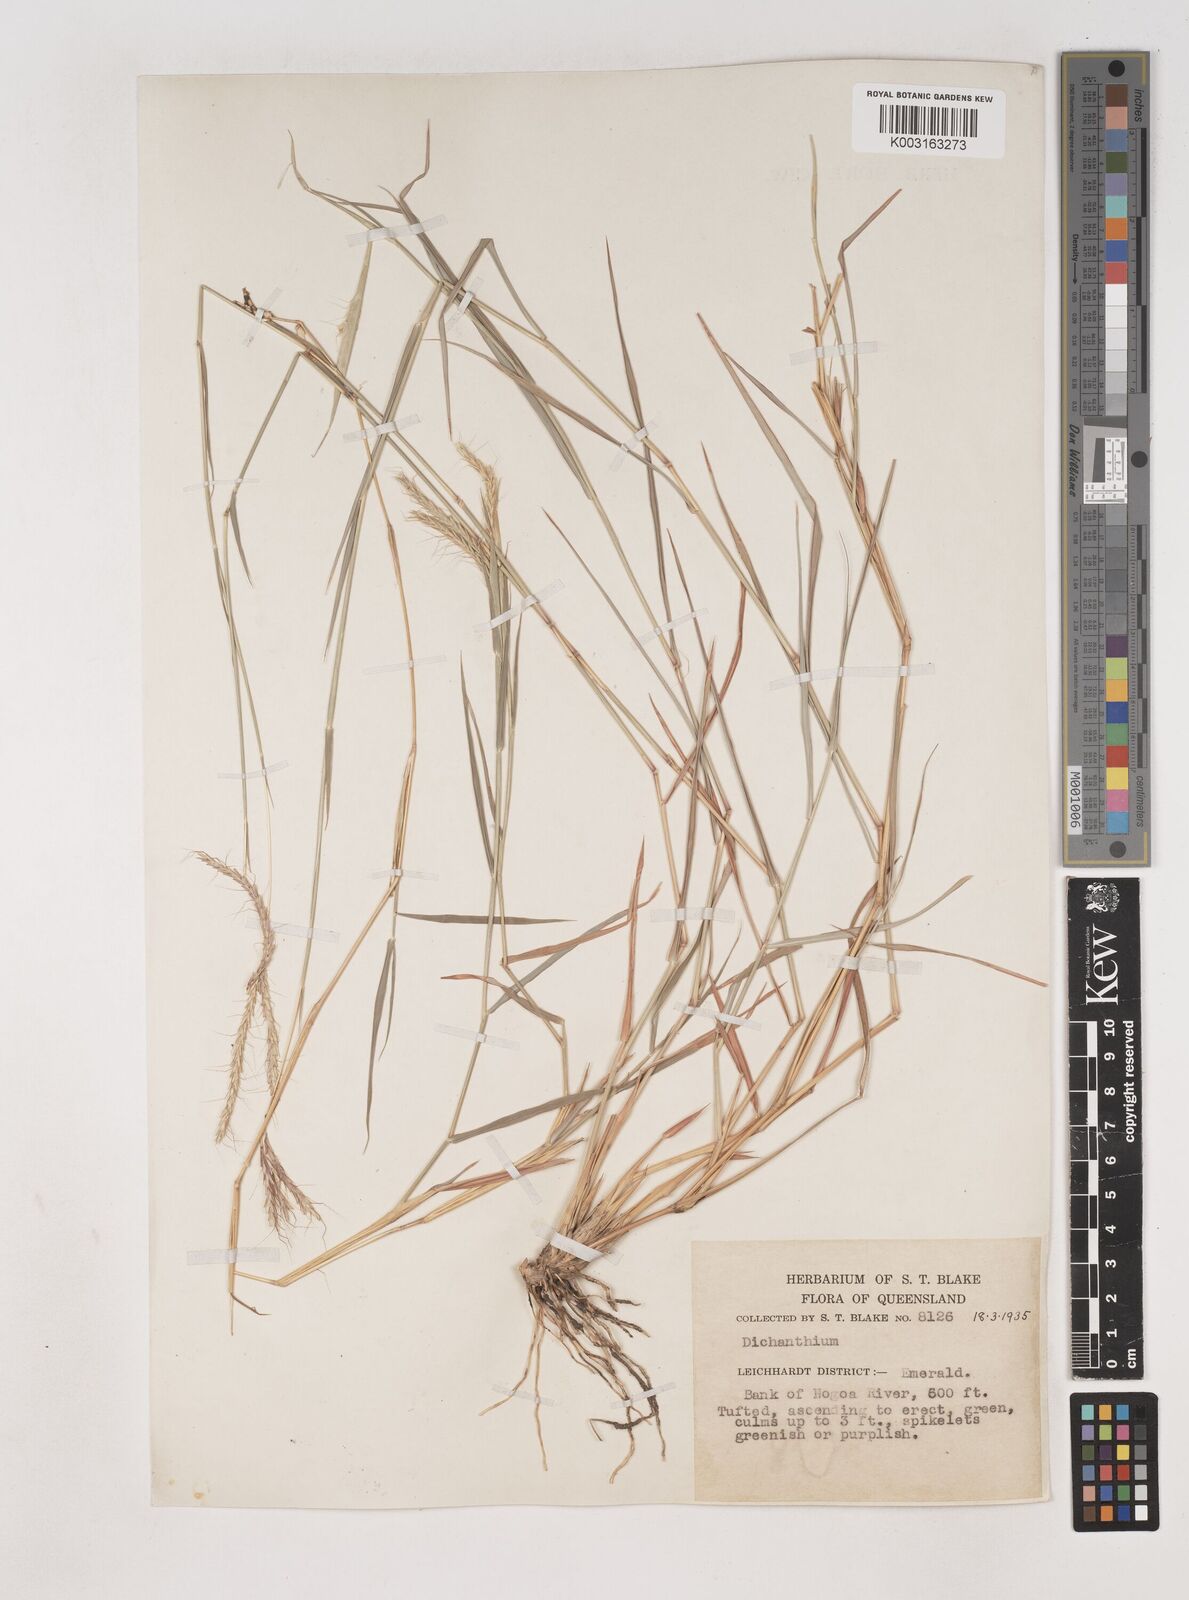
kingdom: Plantae
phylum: Tracheophyta
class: Liliopsida
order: Poales
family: Poaceae
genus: Dichanthium
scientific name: Dichanthium fecundum
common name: Bundle-bundle
